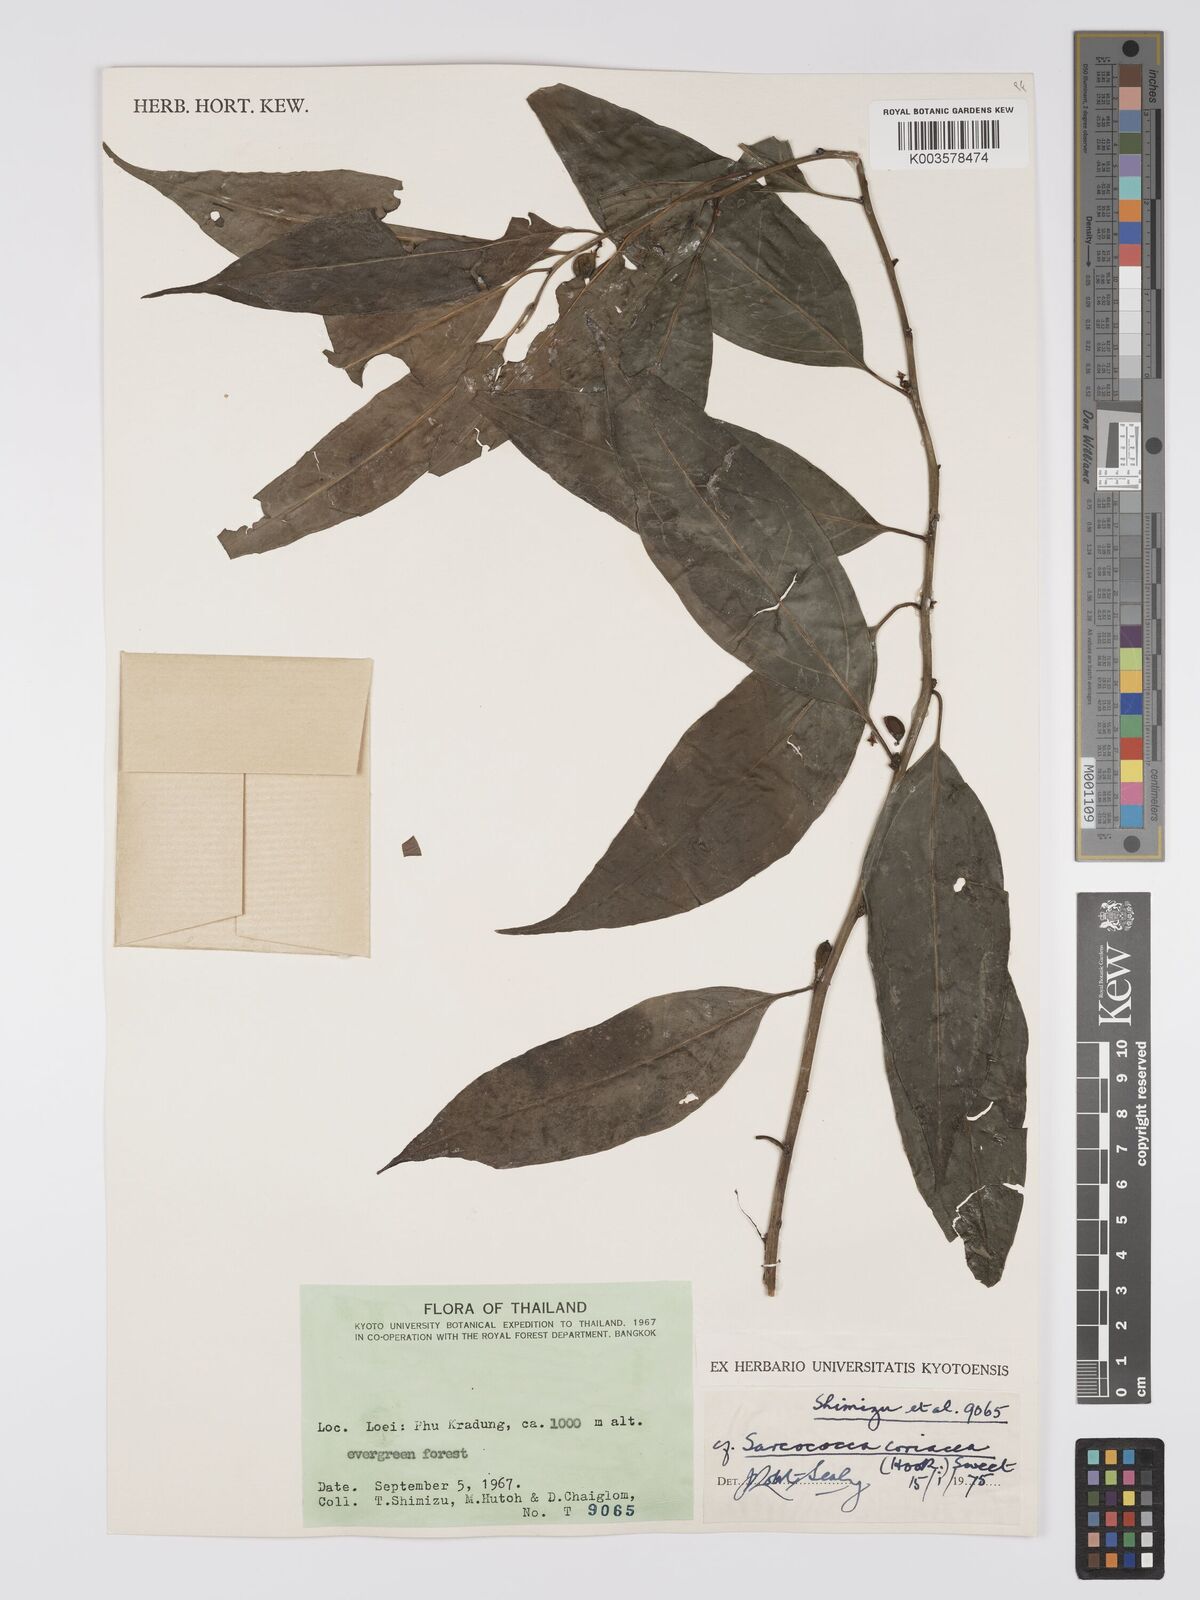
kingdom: Plantae
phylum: Tracheophyta
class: Magnoliopsida
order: Buxales
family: Buxaceae
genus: Sarcococca
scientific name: Sarcococca coriacea
